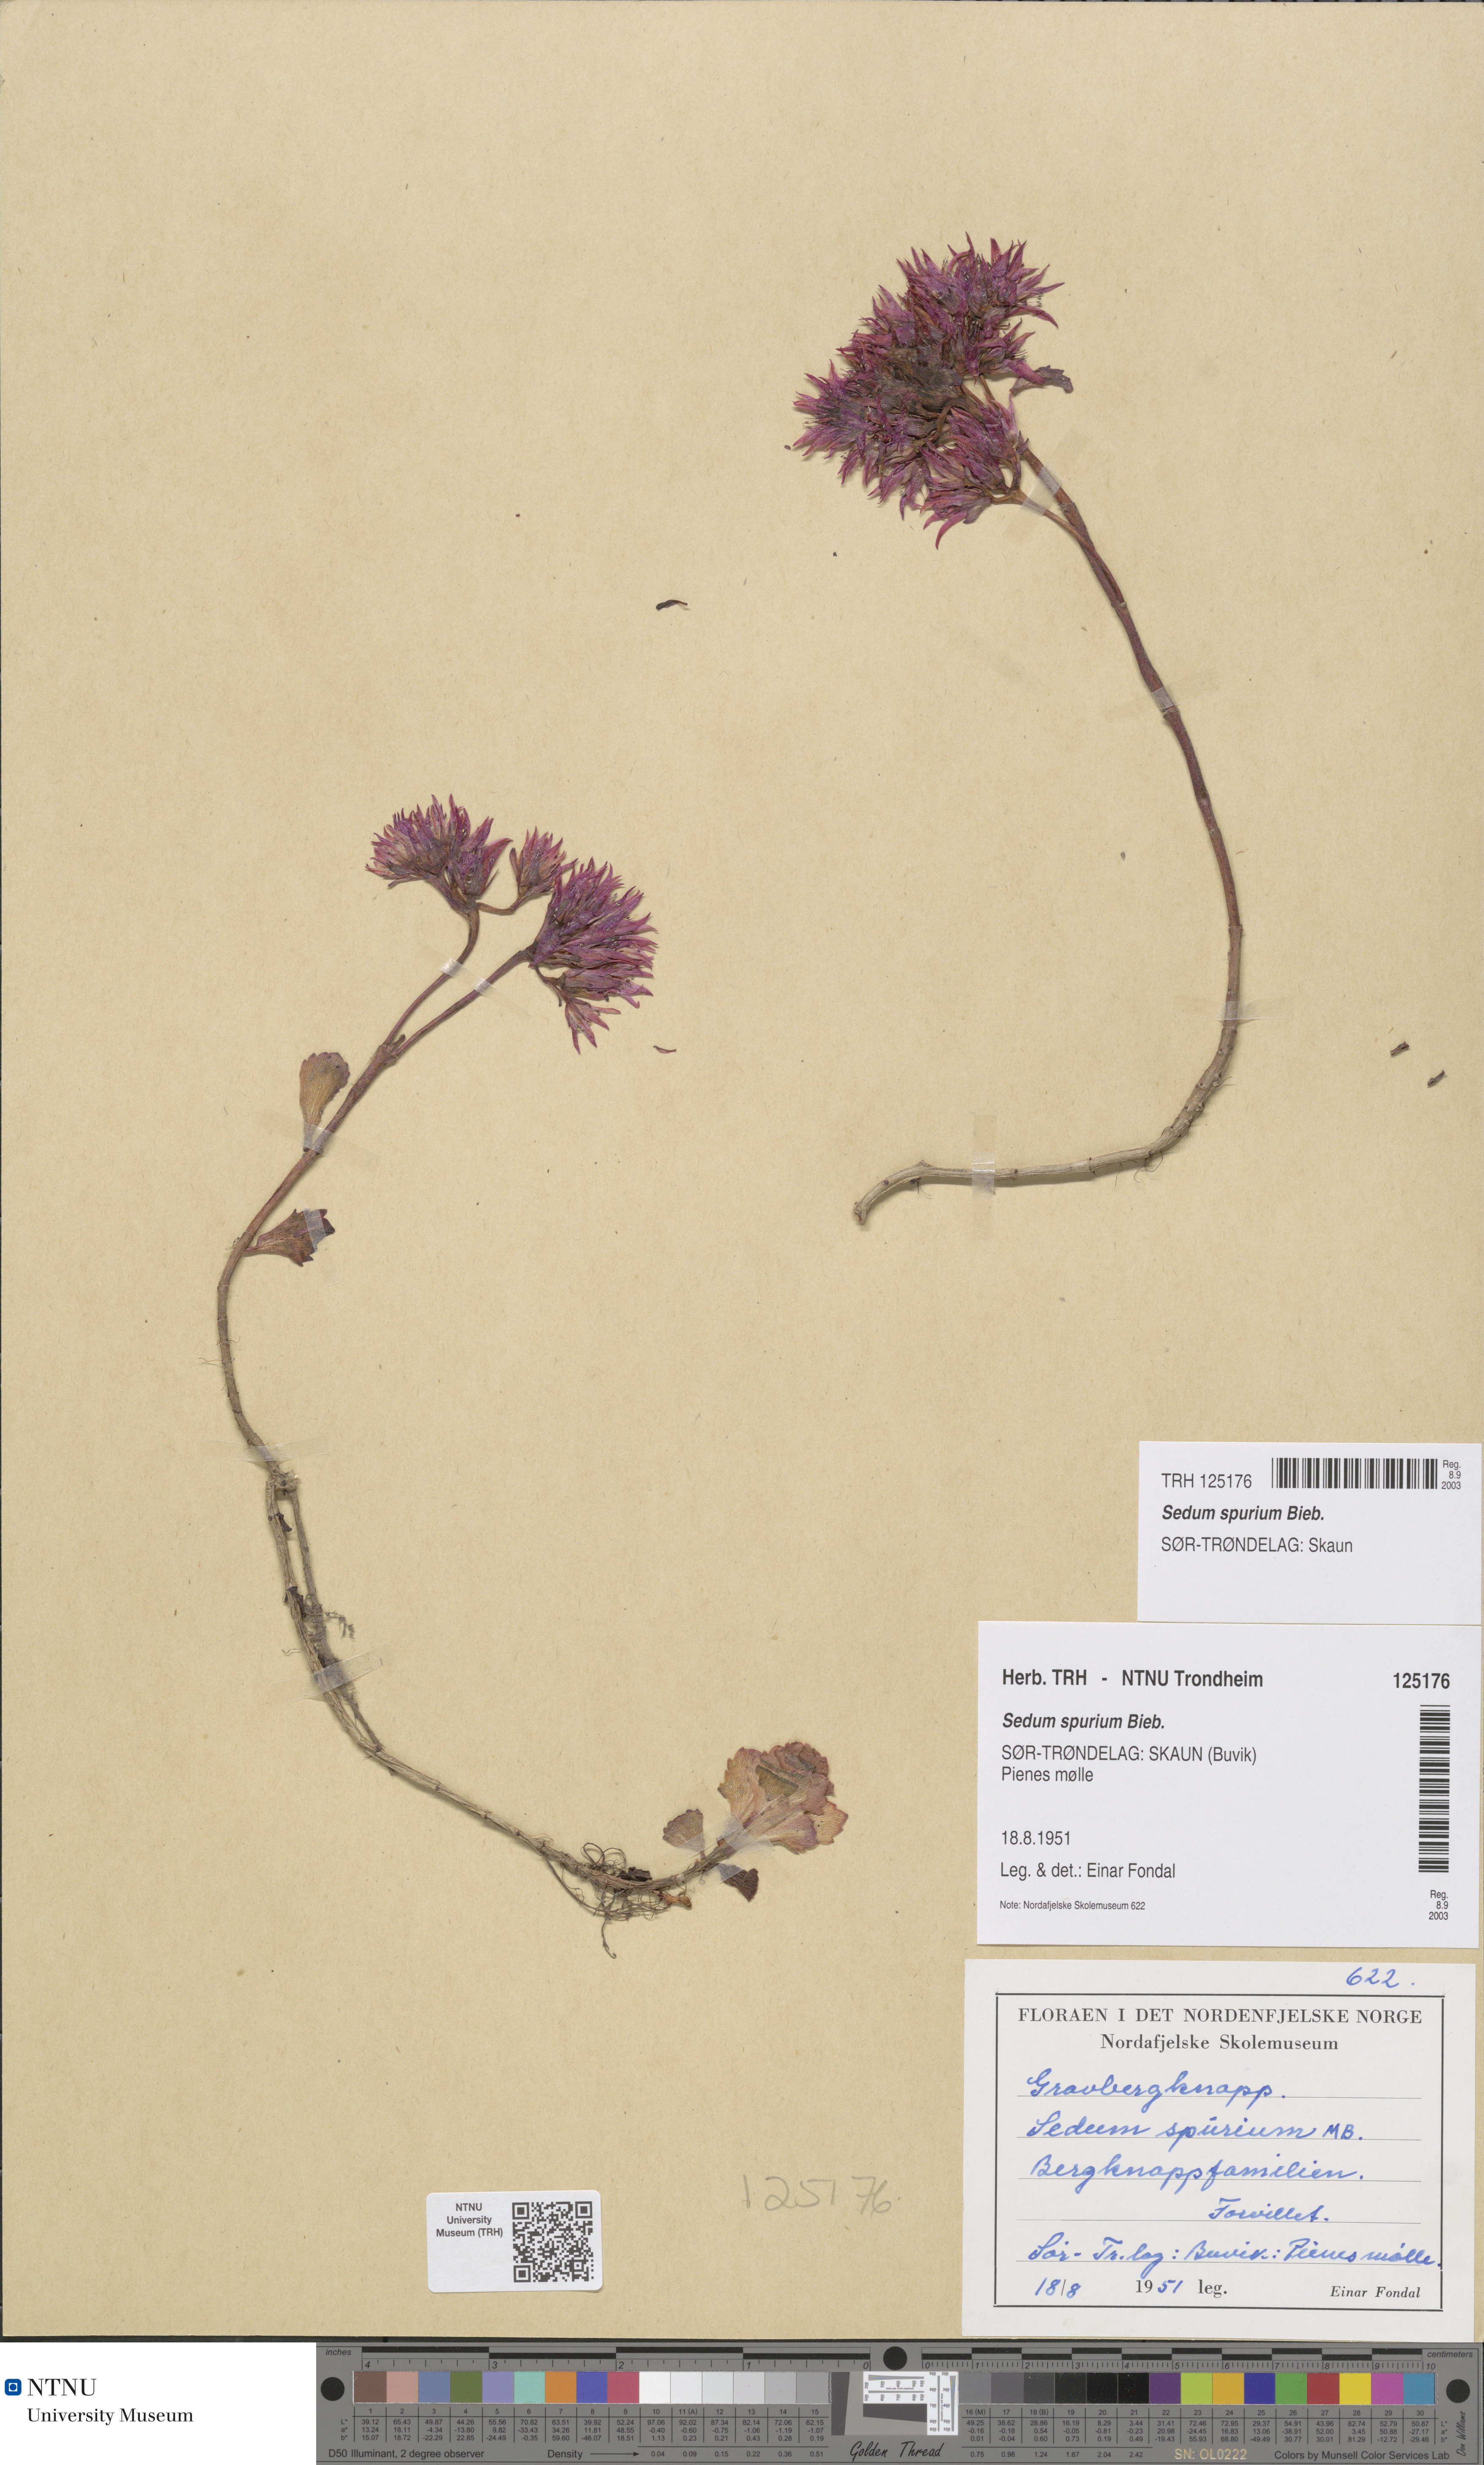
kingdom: Plantae
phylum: Tracheophyta
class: Magnoliopsida
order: Saxifragales
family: Crassulaceae
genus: Phedimus
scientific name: Phedimus spurius
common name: Caucasian stonecrop
